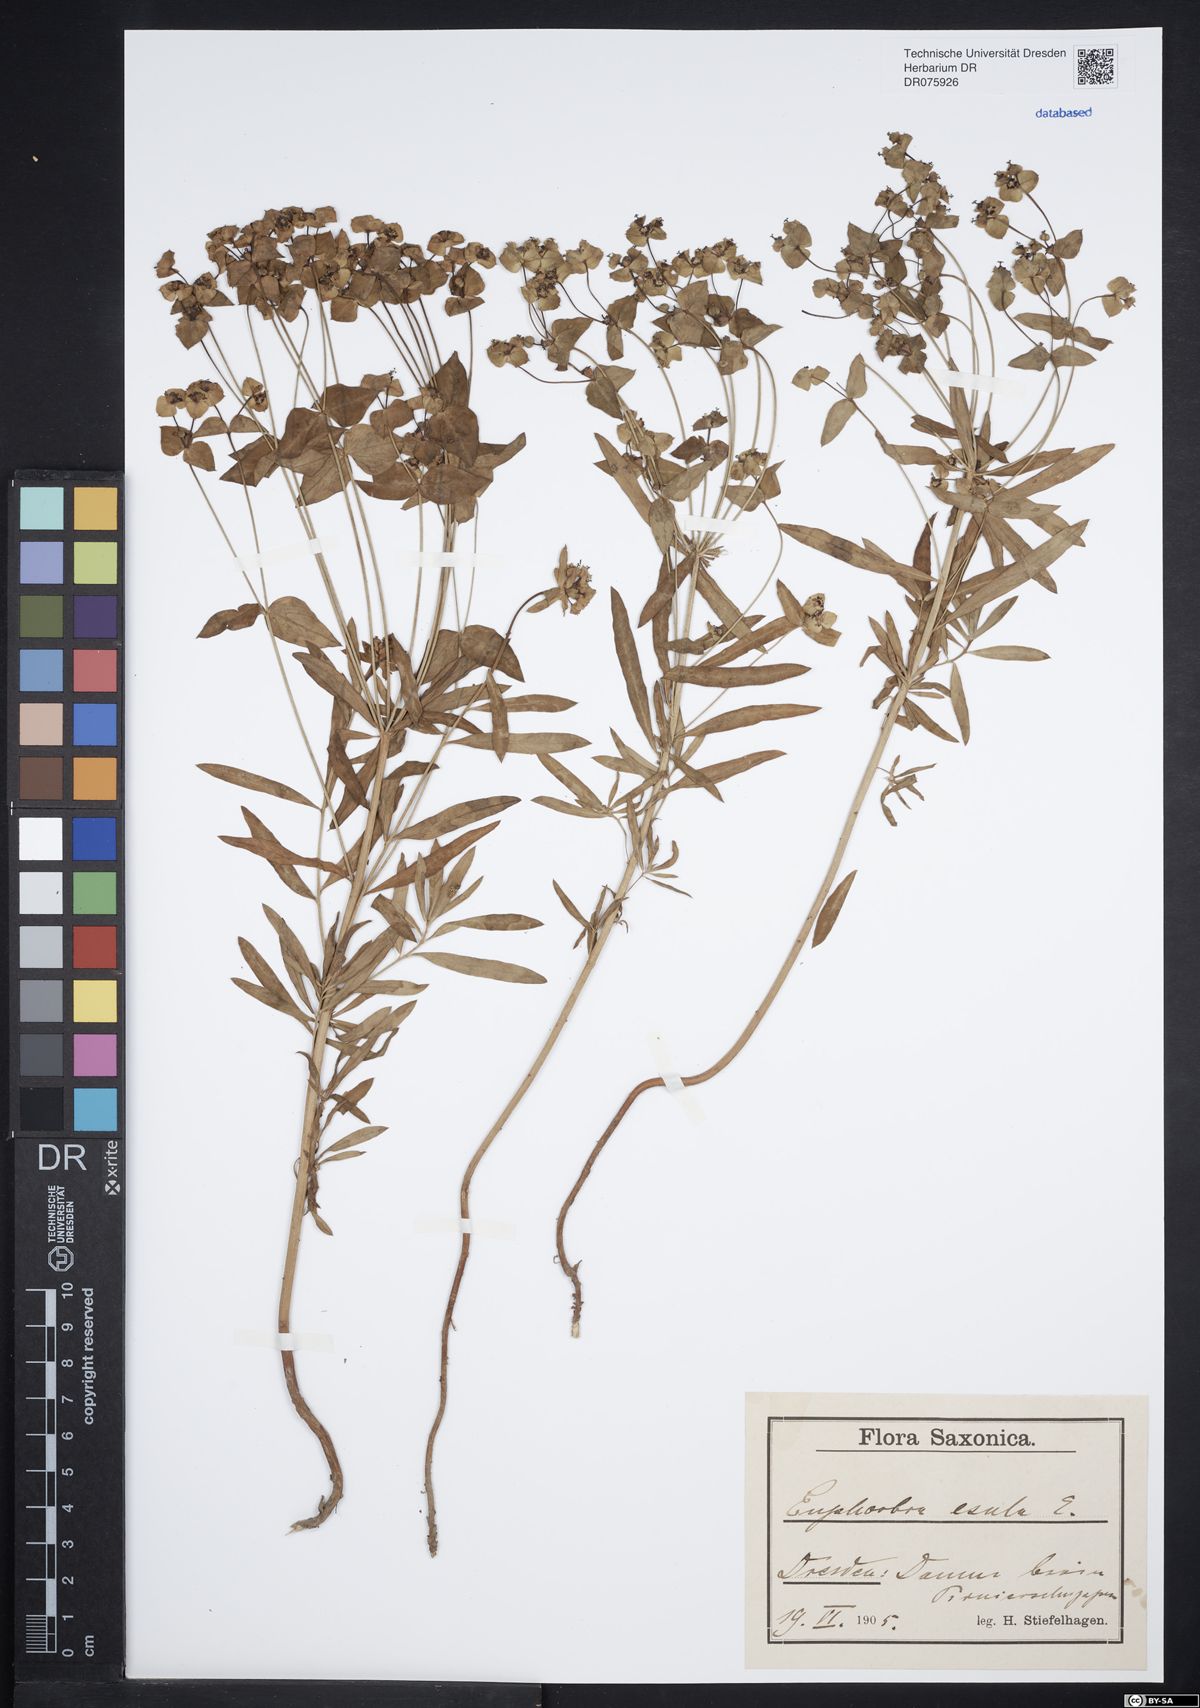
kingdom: Plantae
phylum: Tracheophyta
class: Magnoliopsida
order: Malpighiales
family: Euphorbiaceae
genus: Euphorbia
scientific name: Euphorbia esula
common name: Leafy spurge
